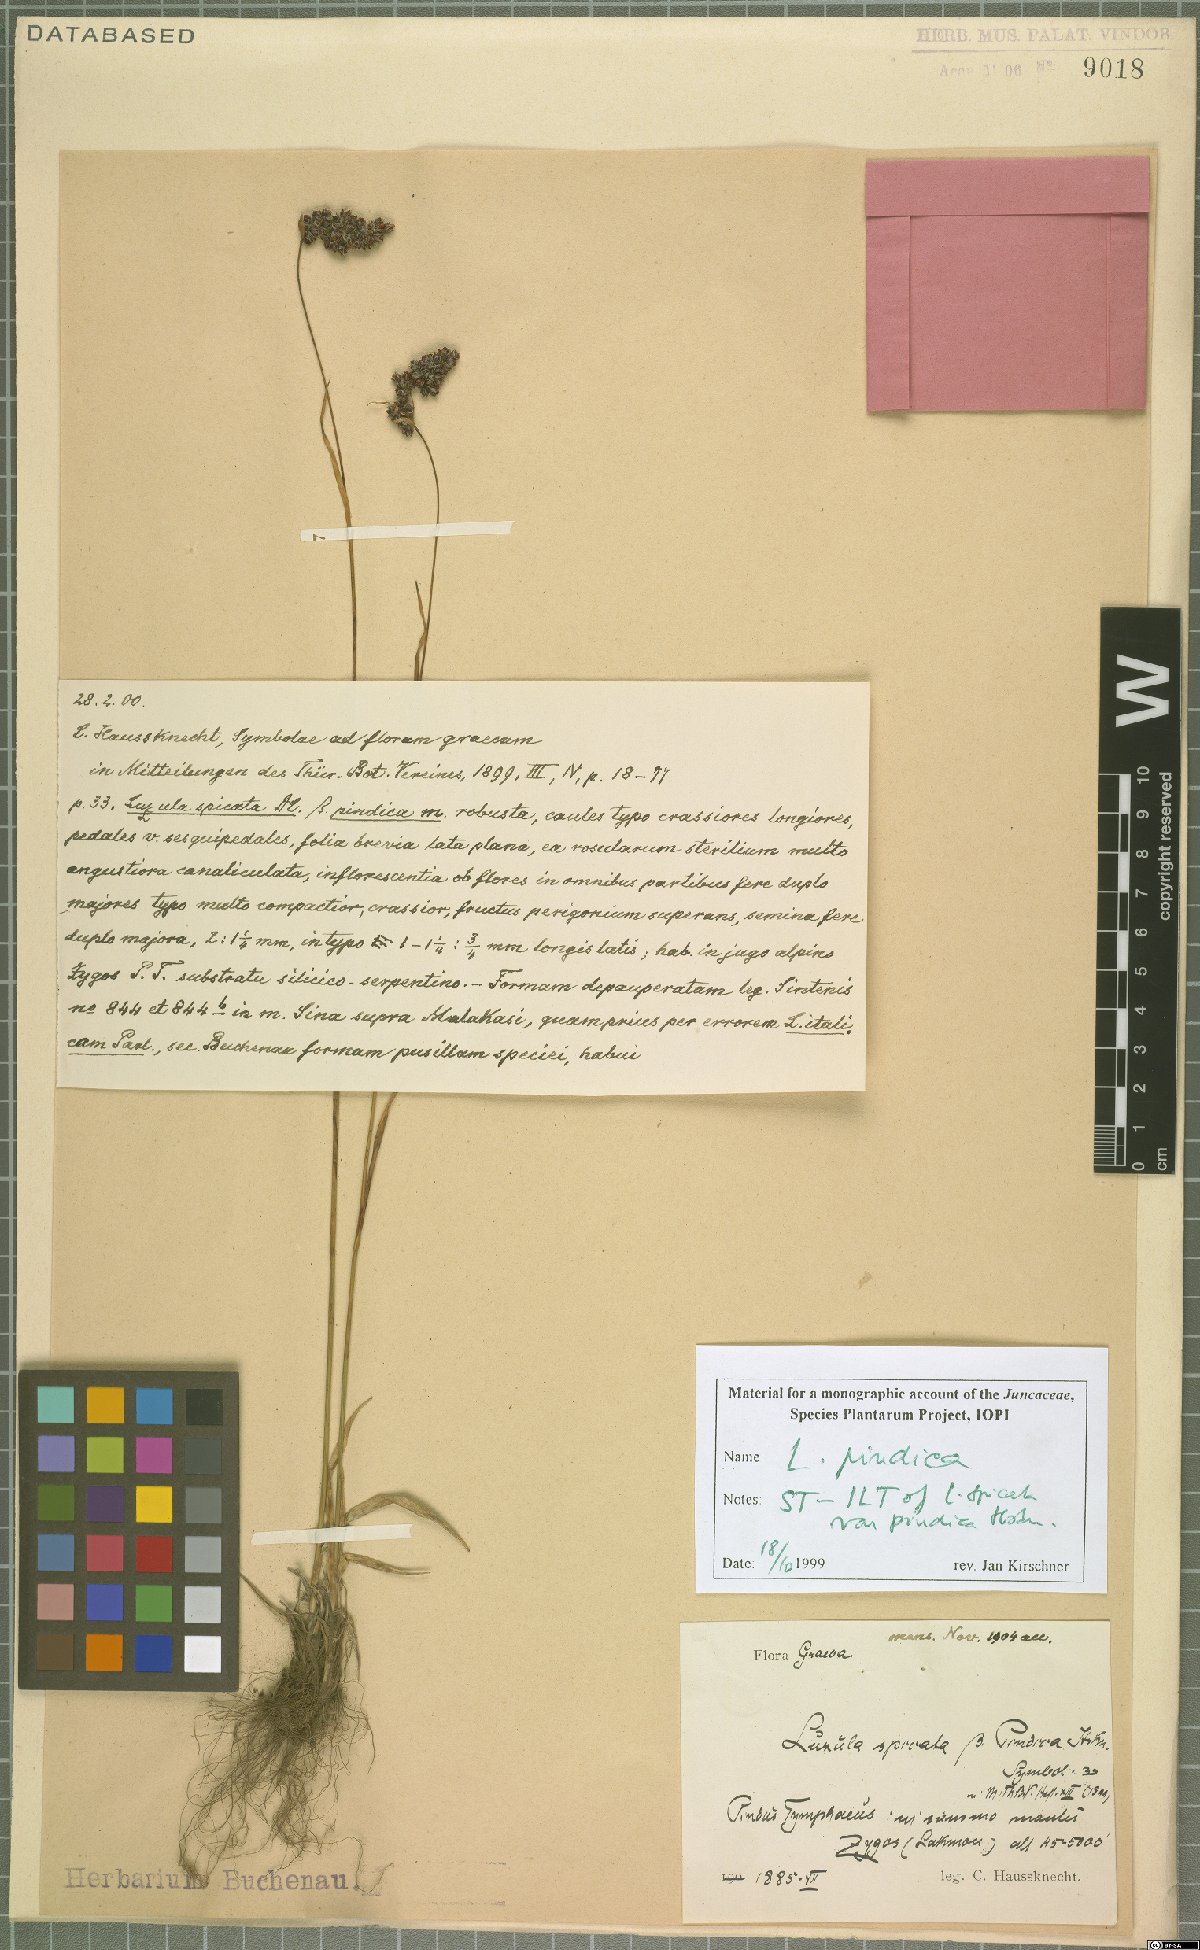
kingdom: Plantae
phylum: Tracheophyta
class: Liliopsida
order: Poales
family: Juncaceae
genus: Luzula
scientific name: Luzula pindica
